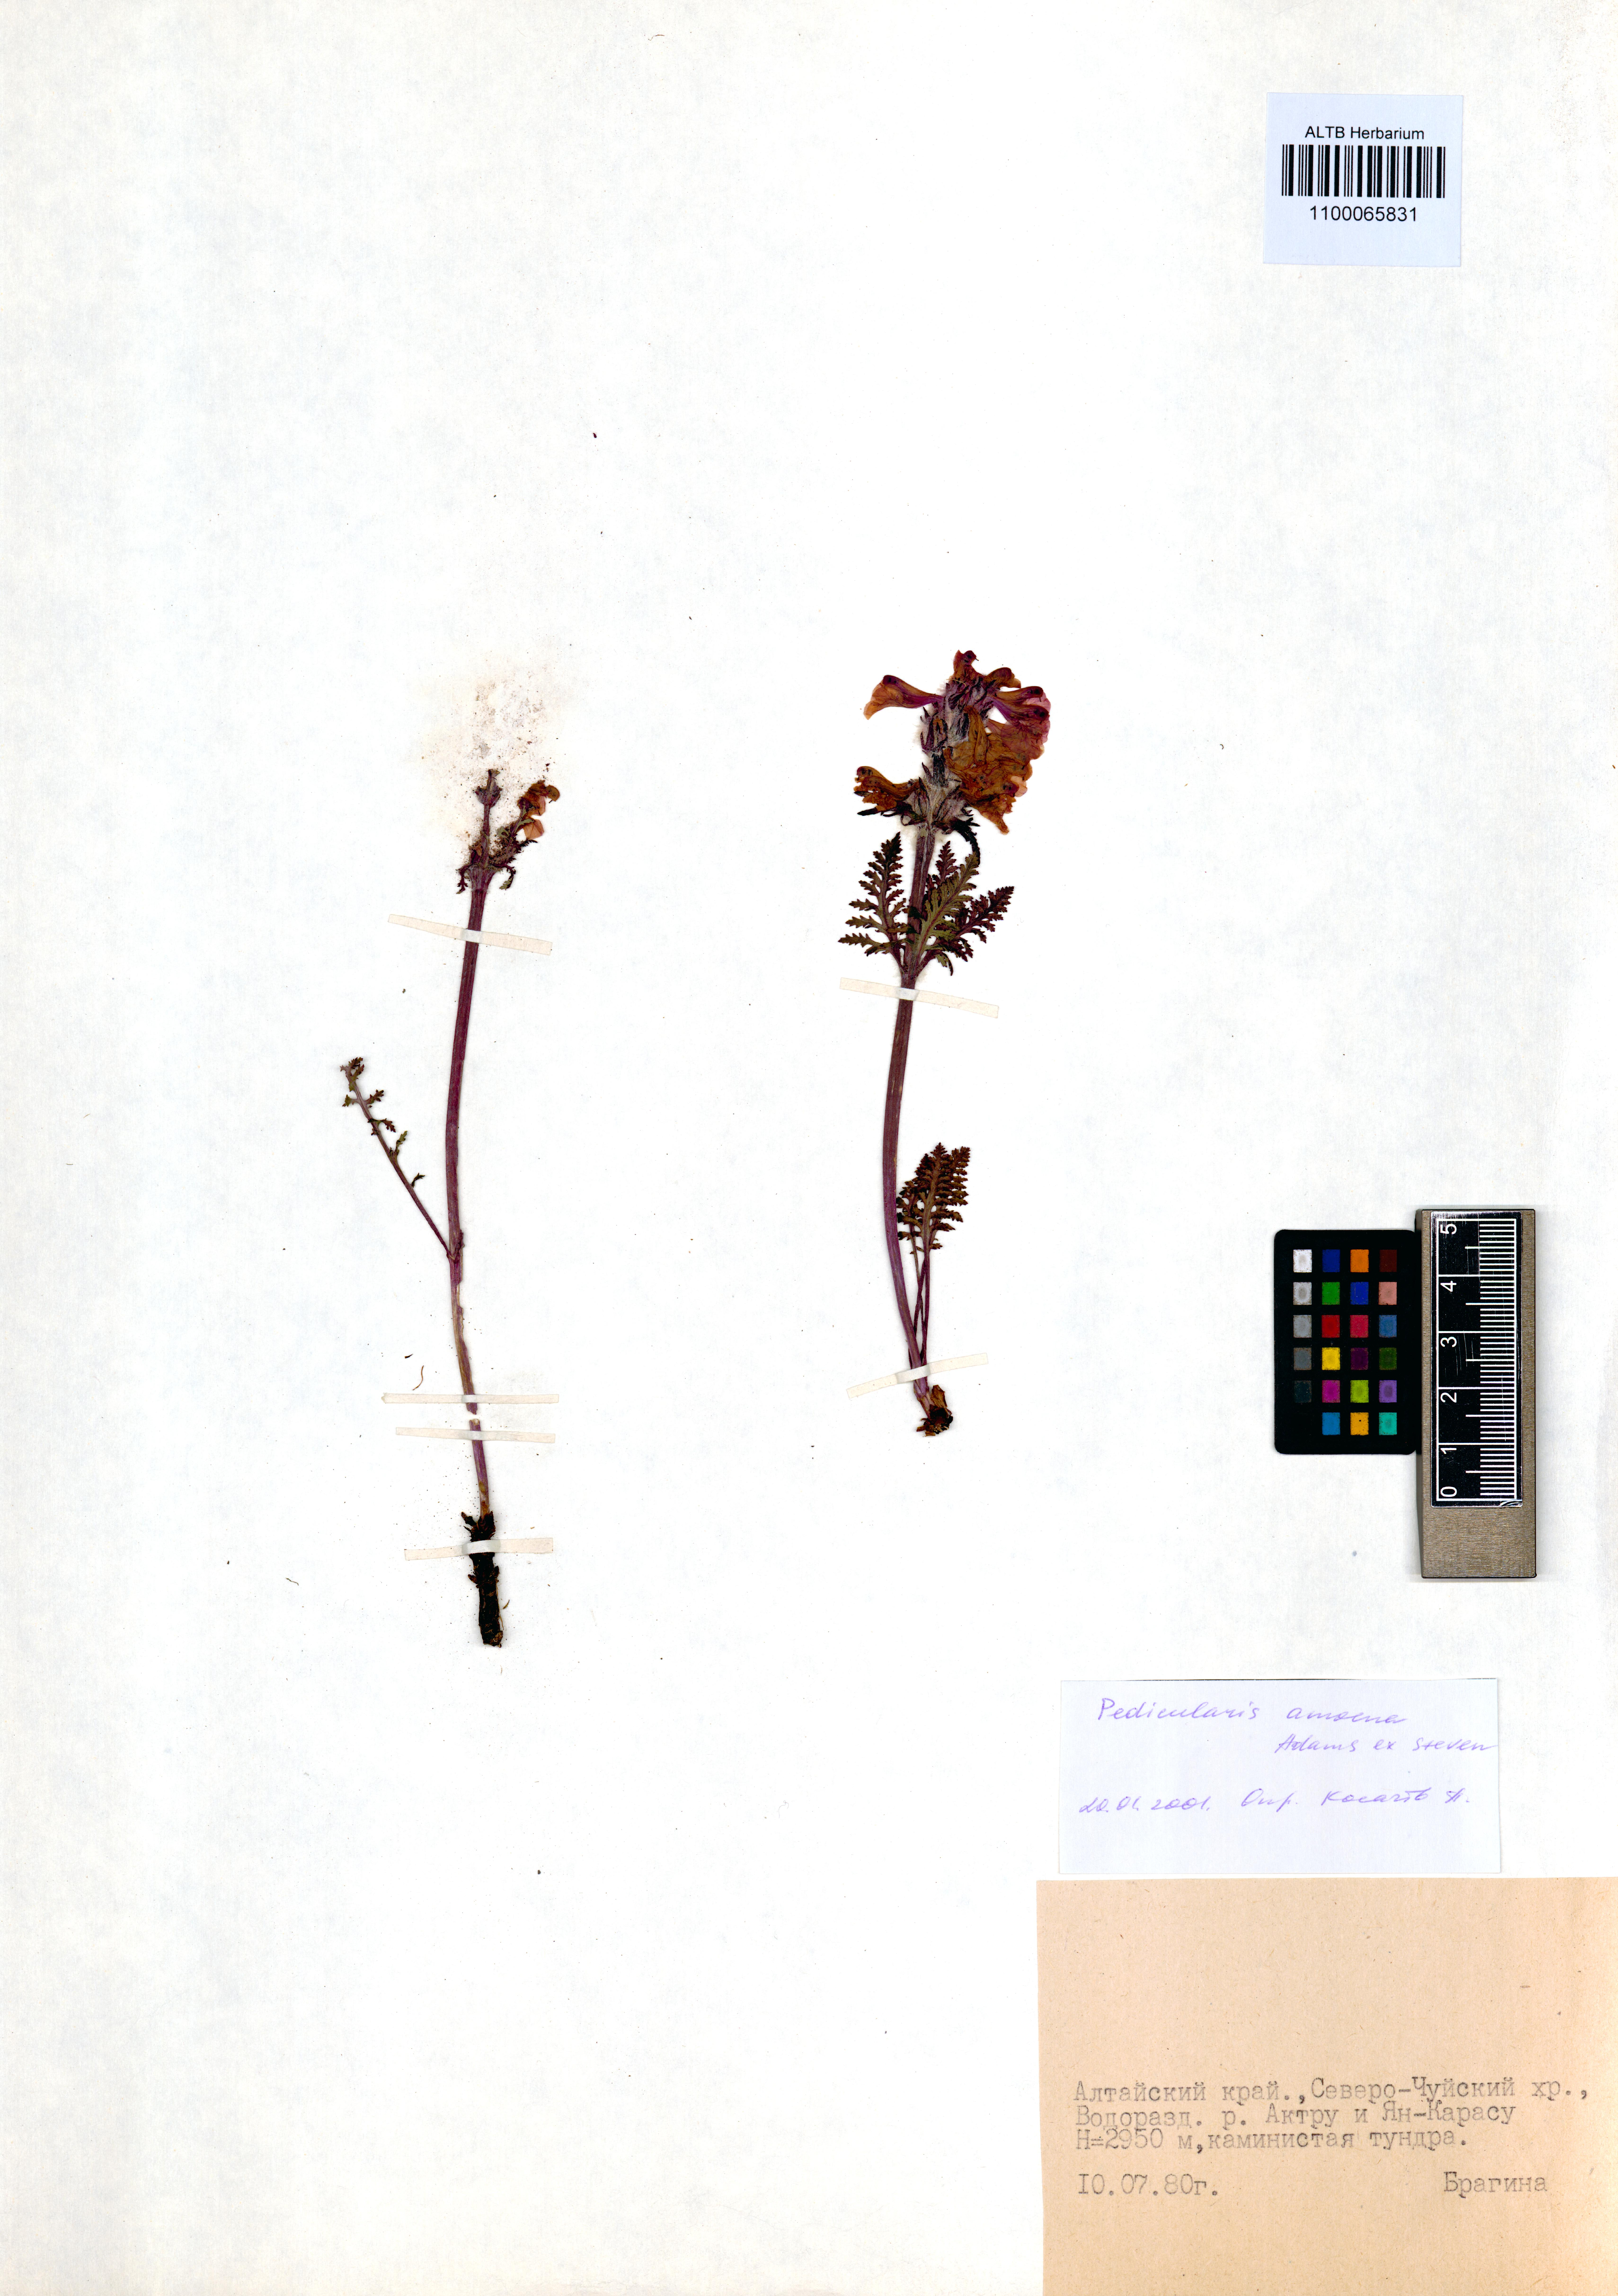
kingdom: Plantae
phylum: Tracheophyta
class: Magnoliopsida
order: Lamiales
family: Orobanchaceae
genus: Pedicularis
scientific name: Pedicularis amoena
